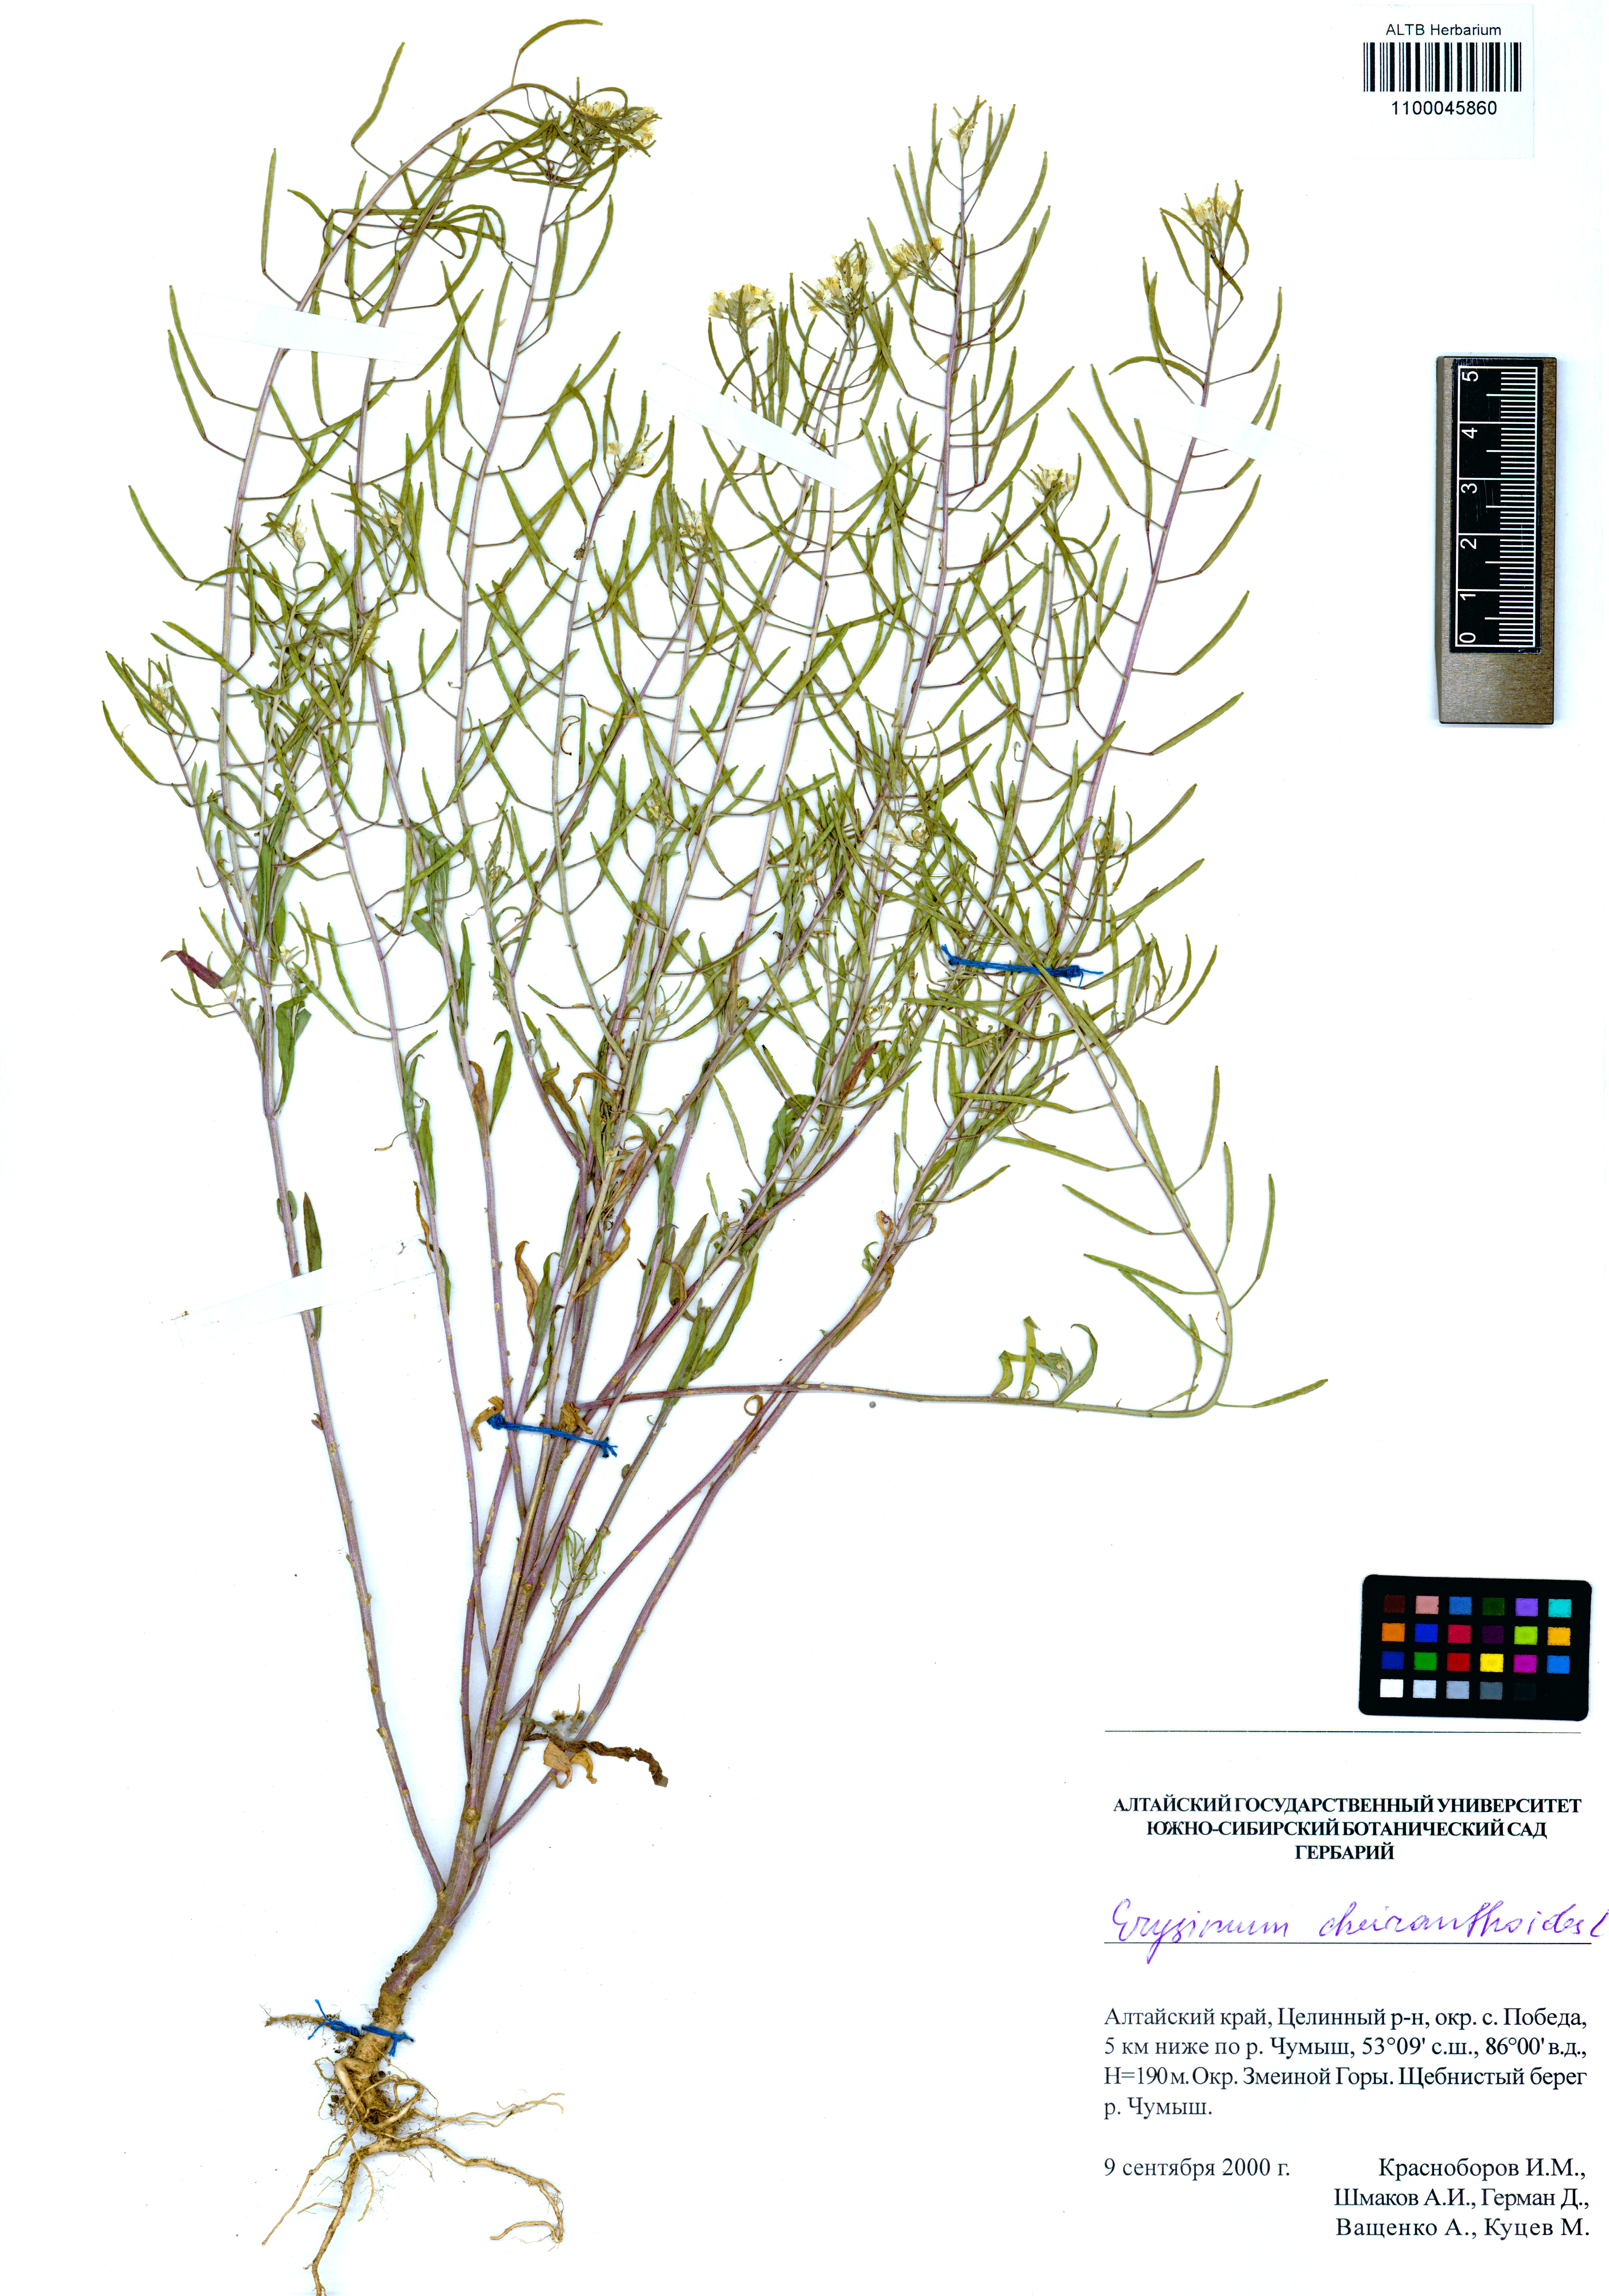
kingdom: Plantae
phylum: Tracheophyta
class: Magnoliopsida
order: Brassicales
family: Brassicaceae
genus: Erysimum
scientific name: Erysimum cheiranthoides
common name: Treacle mustard
